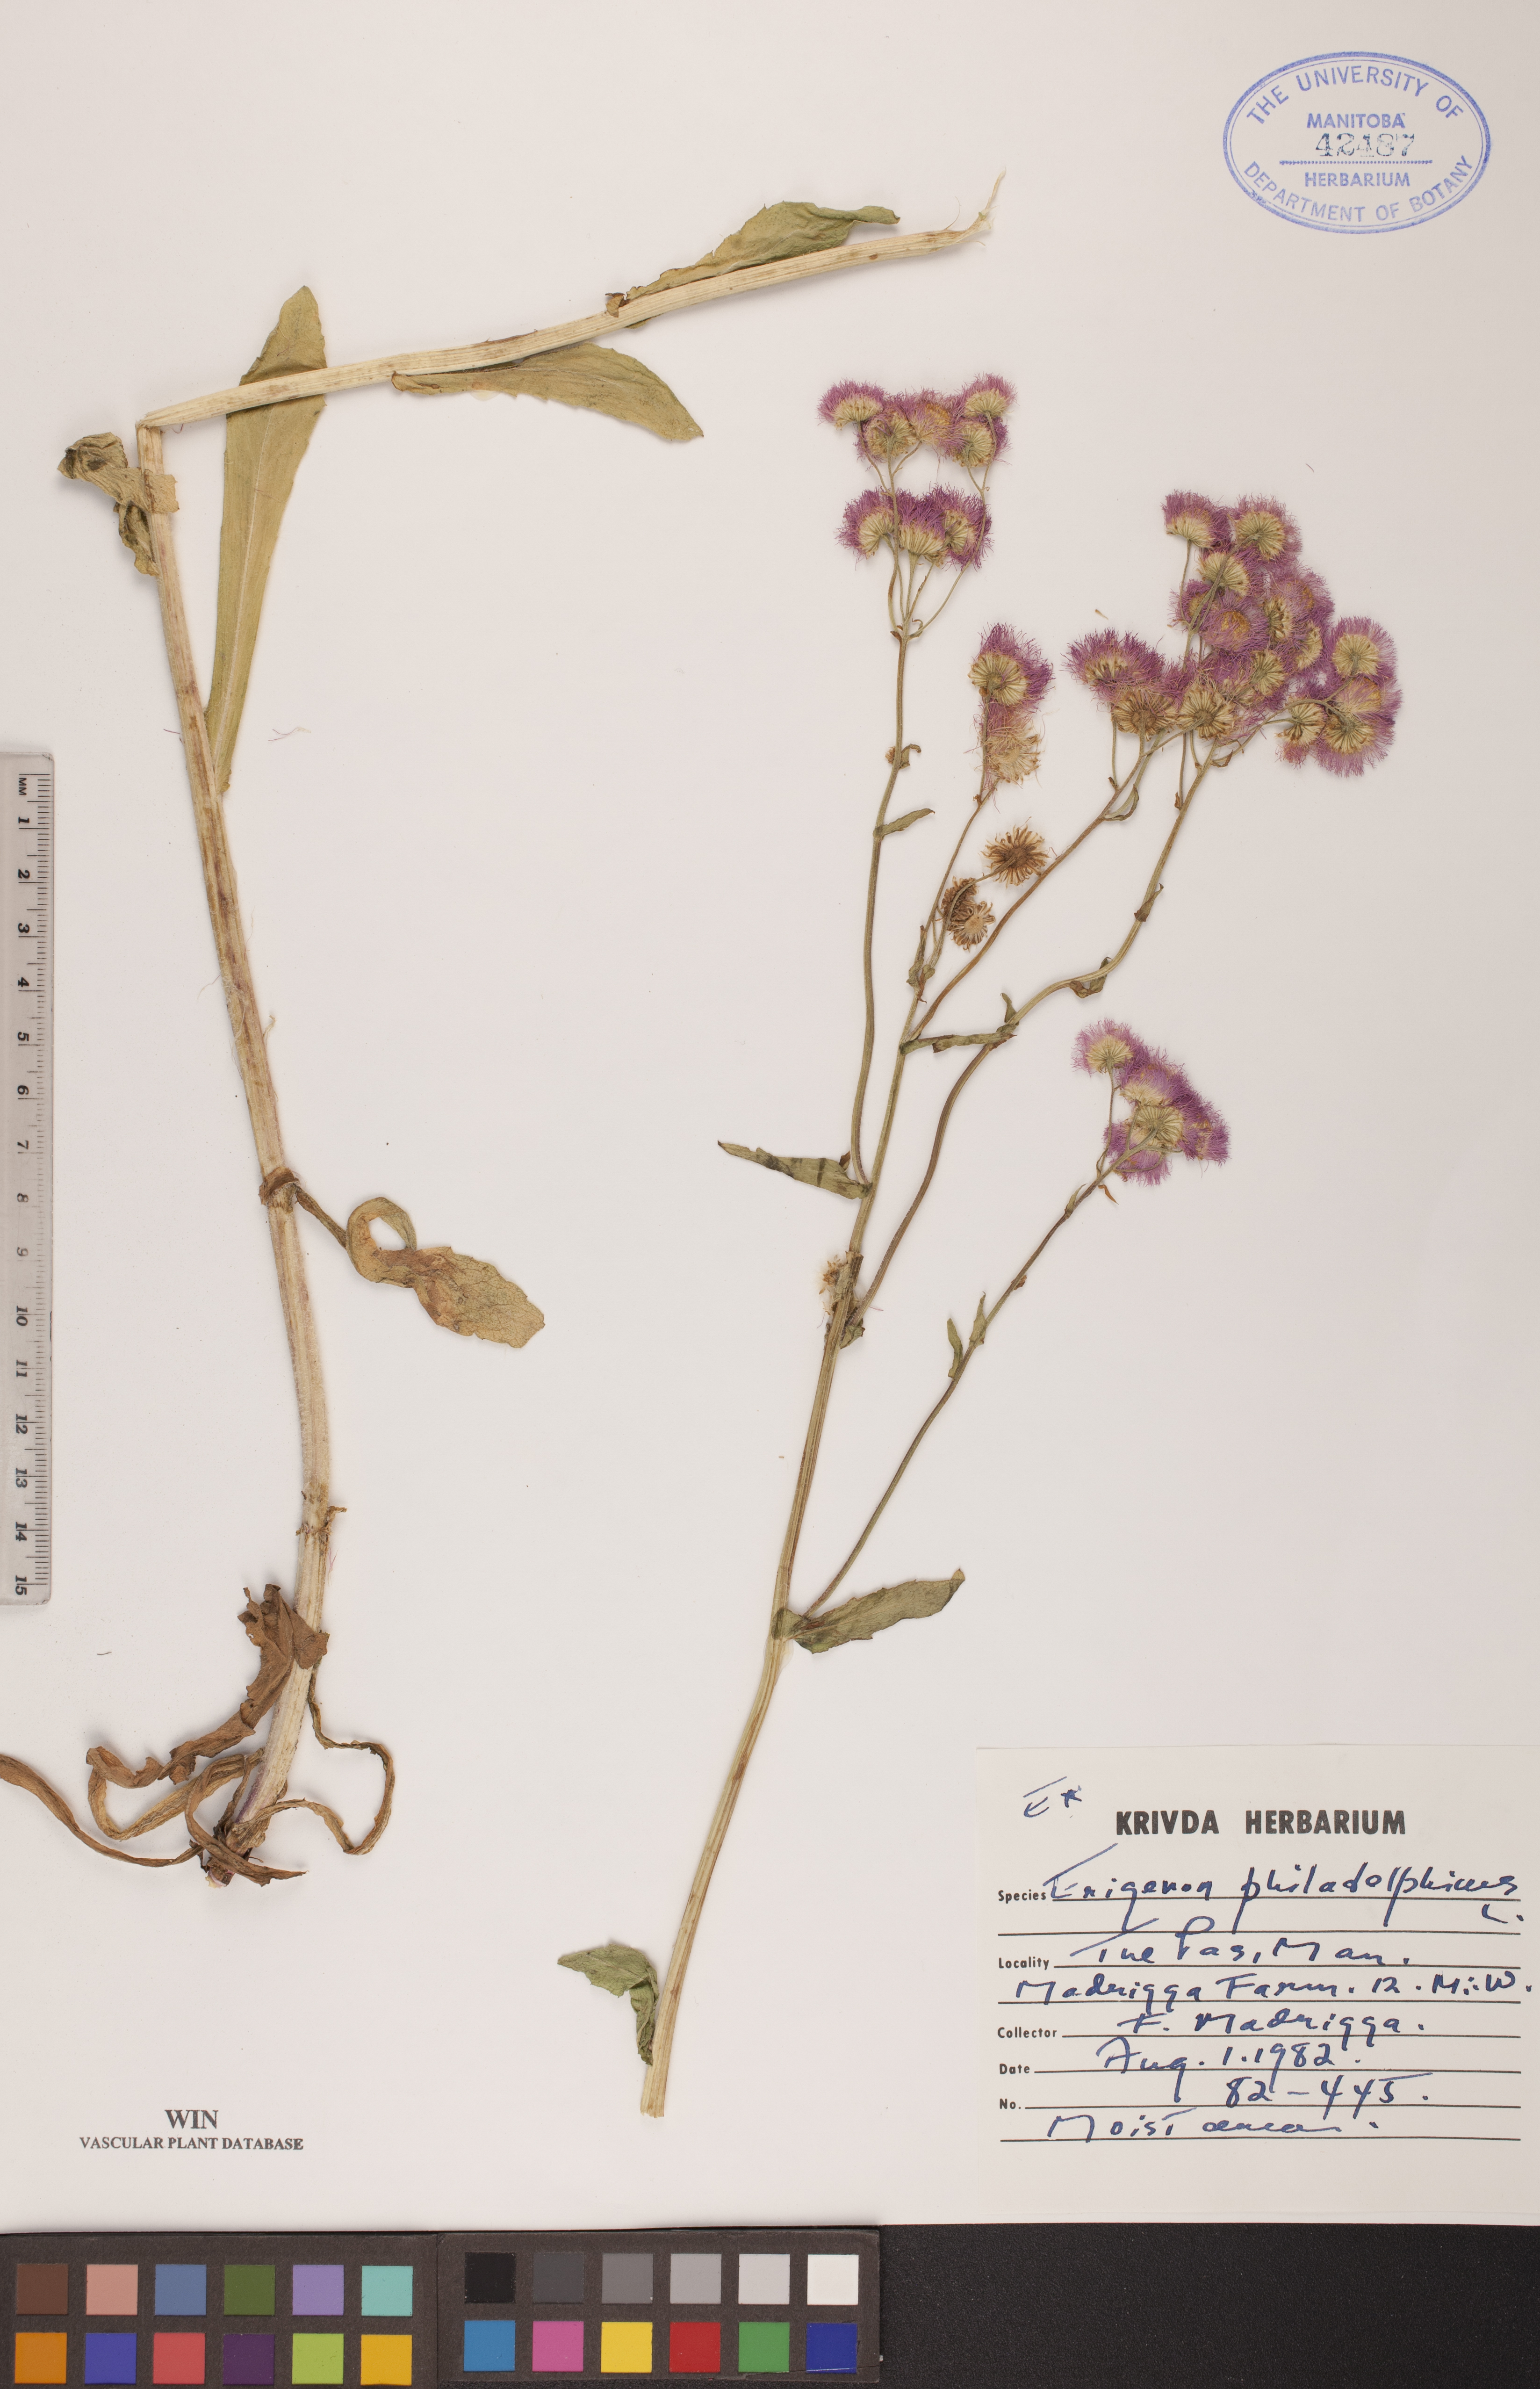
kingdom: Plantae
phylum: Tracheophyta
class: Magnoliopsida
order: Asterales
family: Asteraceae
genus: Erigeron
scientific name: Erigeron philadelphicus
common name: Robin's-plantain
